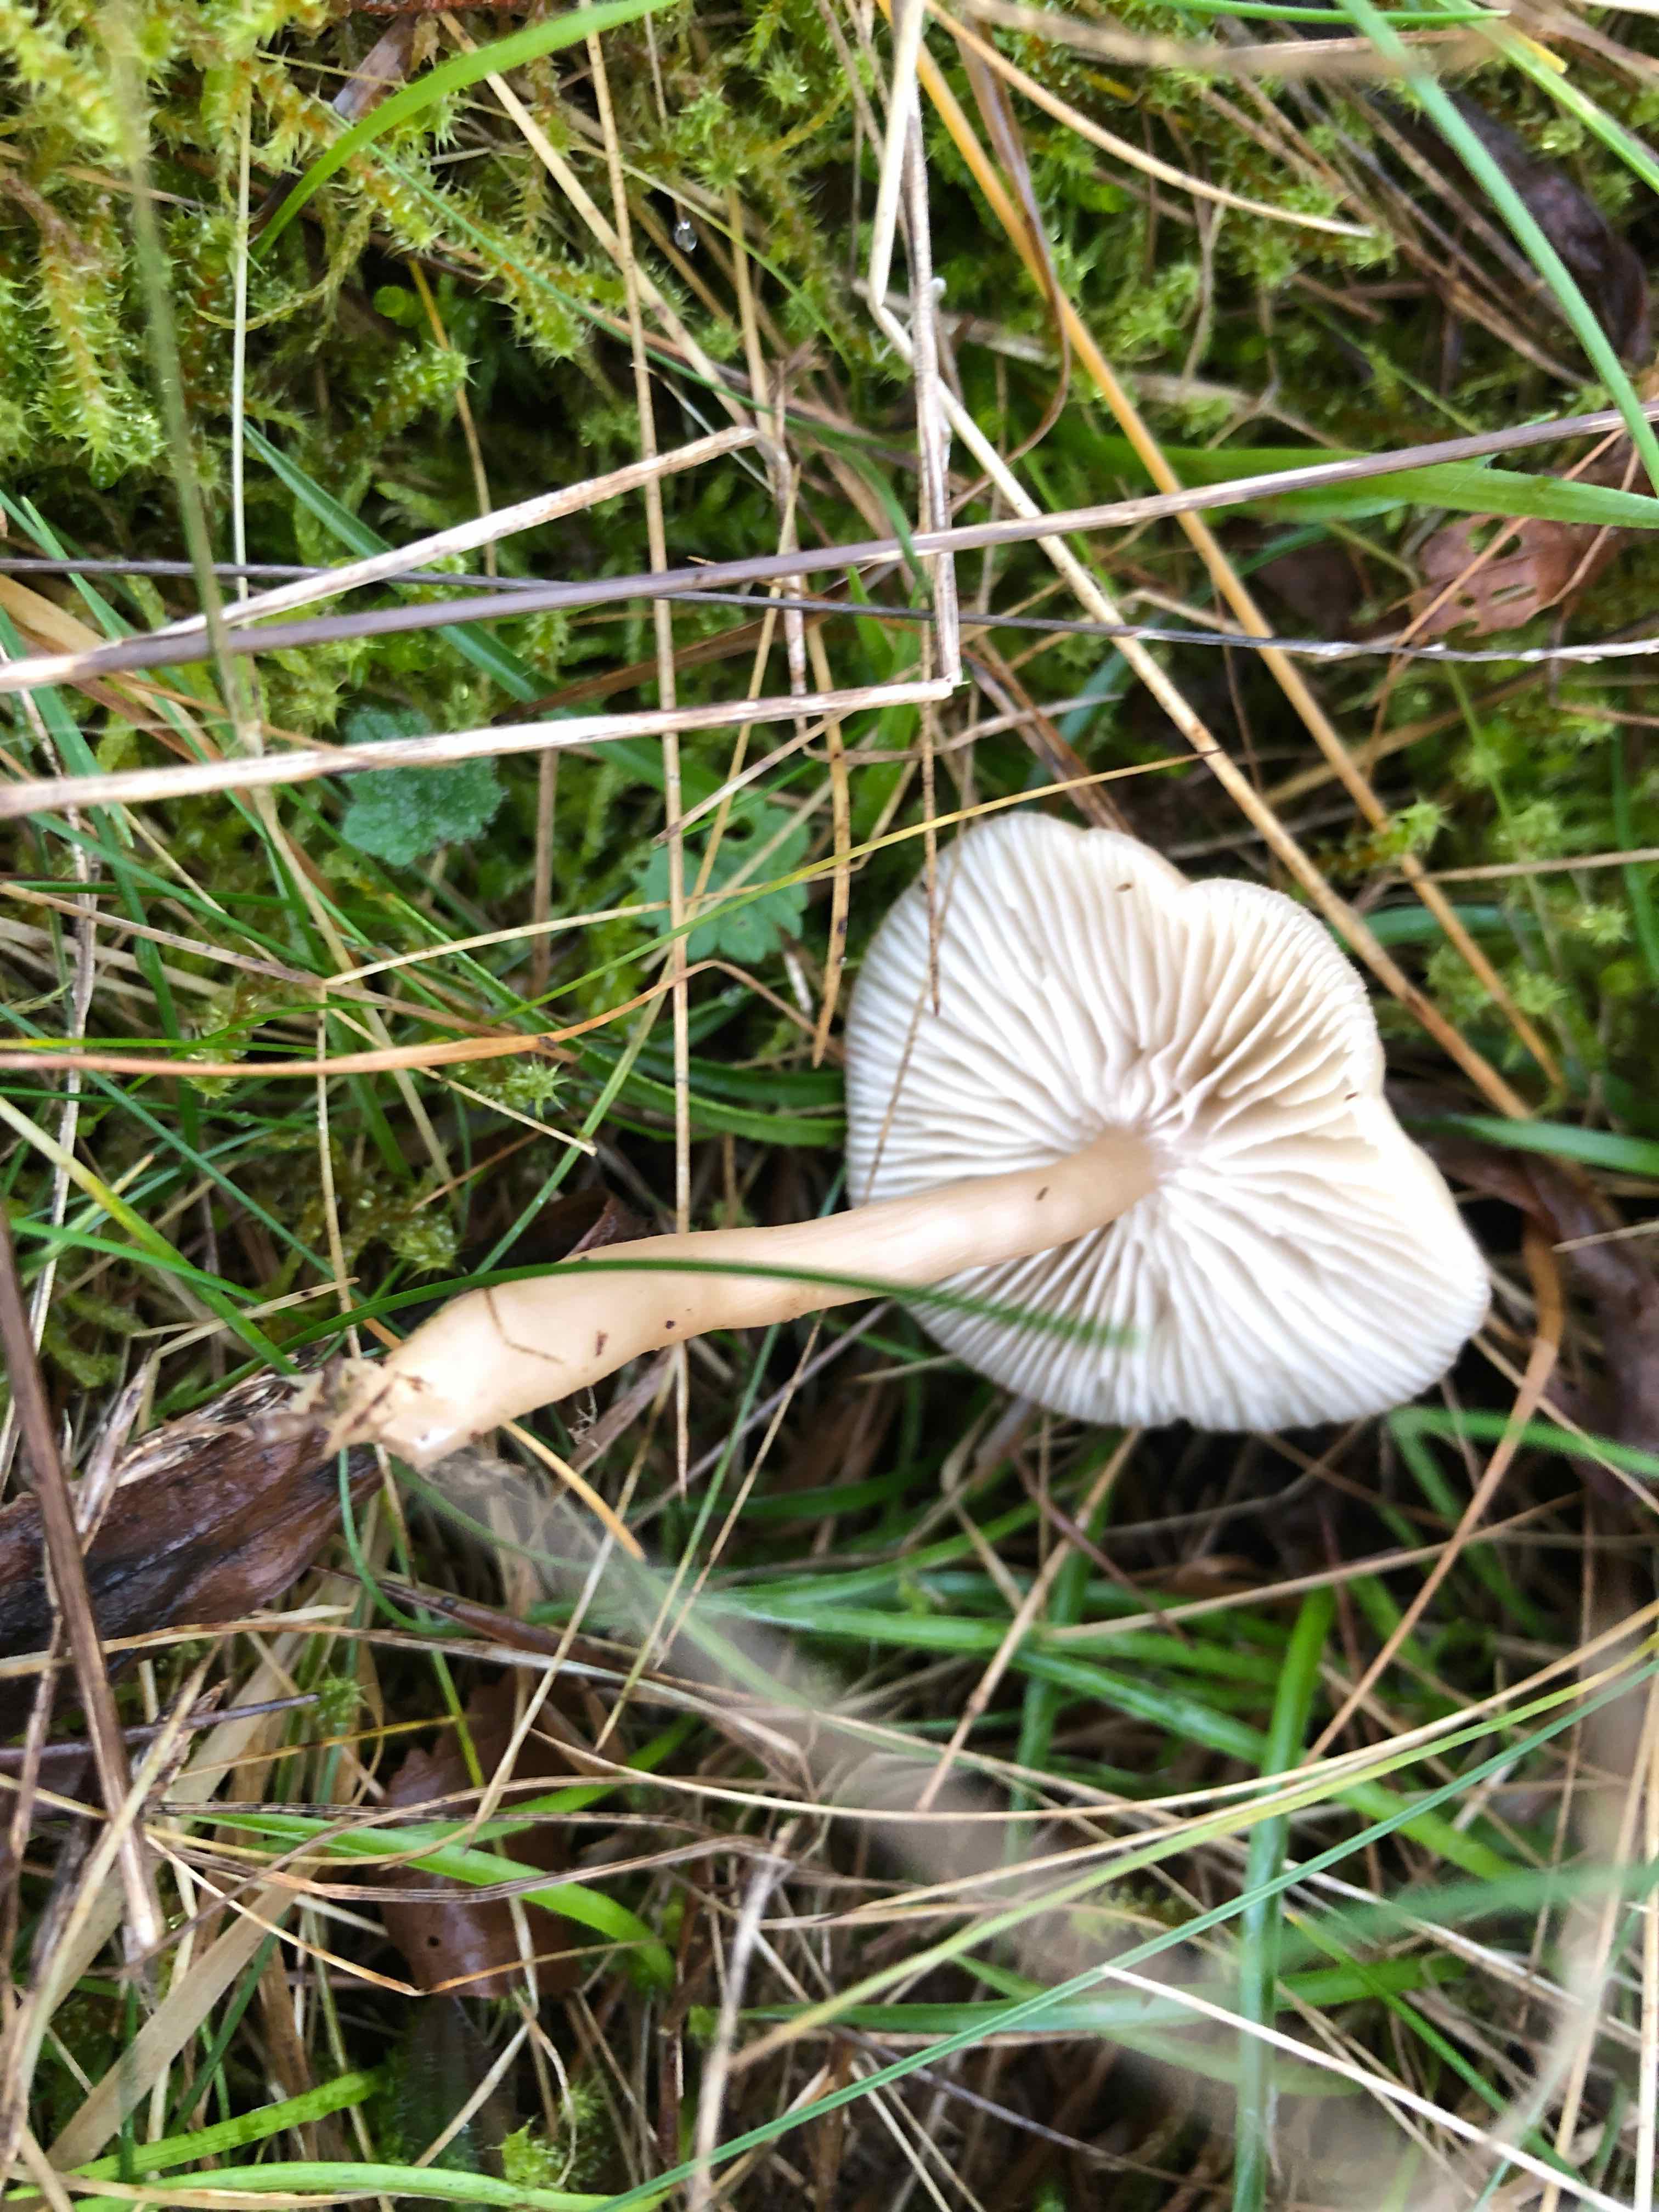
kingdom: Fungi
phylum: Basidiomycota
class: Agaricomycetes
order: Agaricales
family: Tricholomataceae
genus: Clitocybe
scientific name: Clitocybe fragrans
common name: vellugtende tragthat
